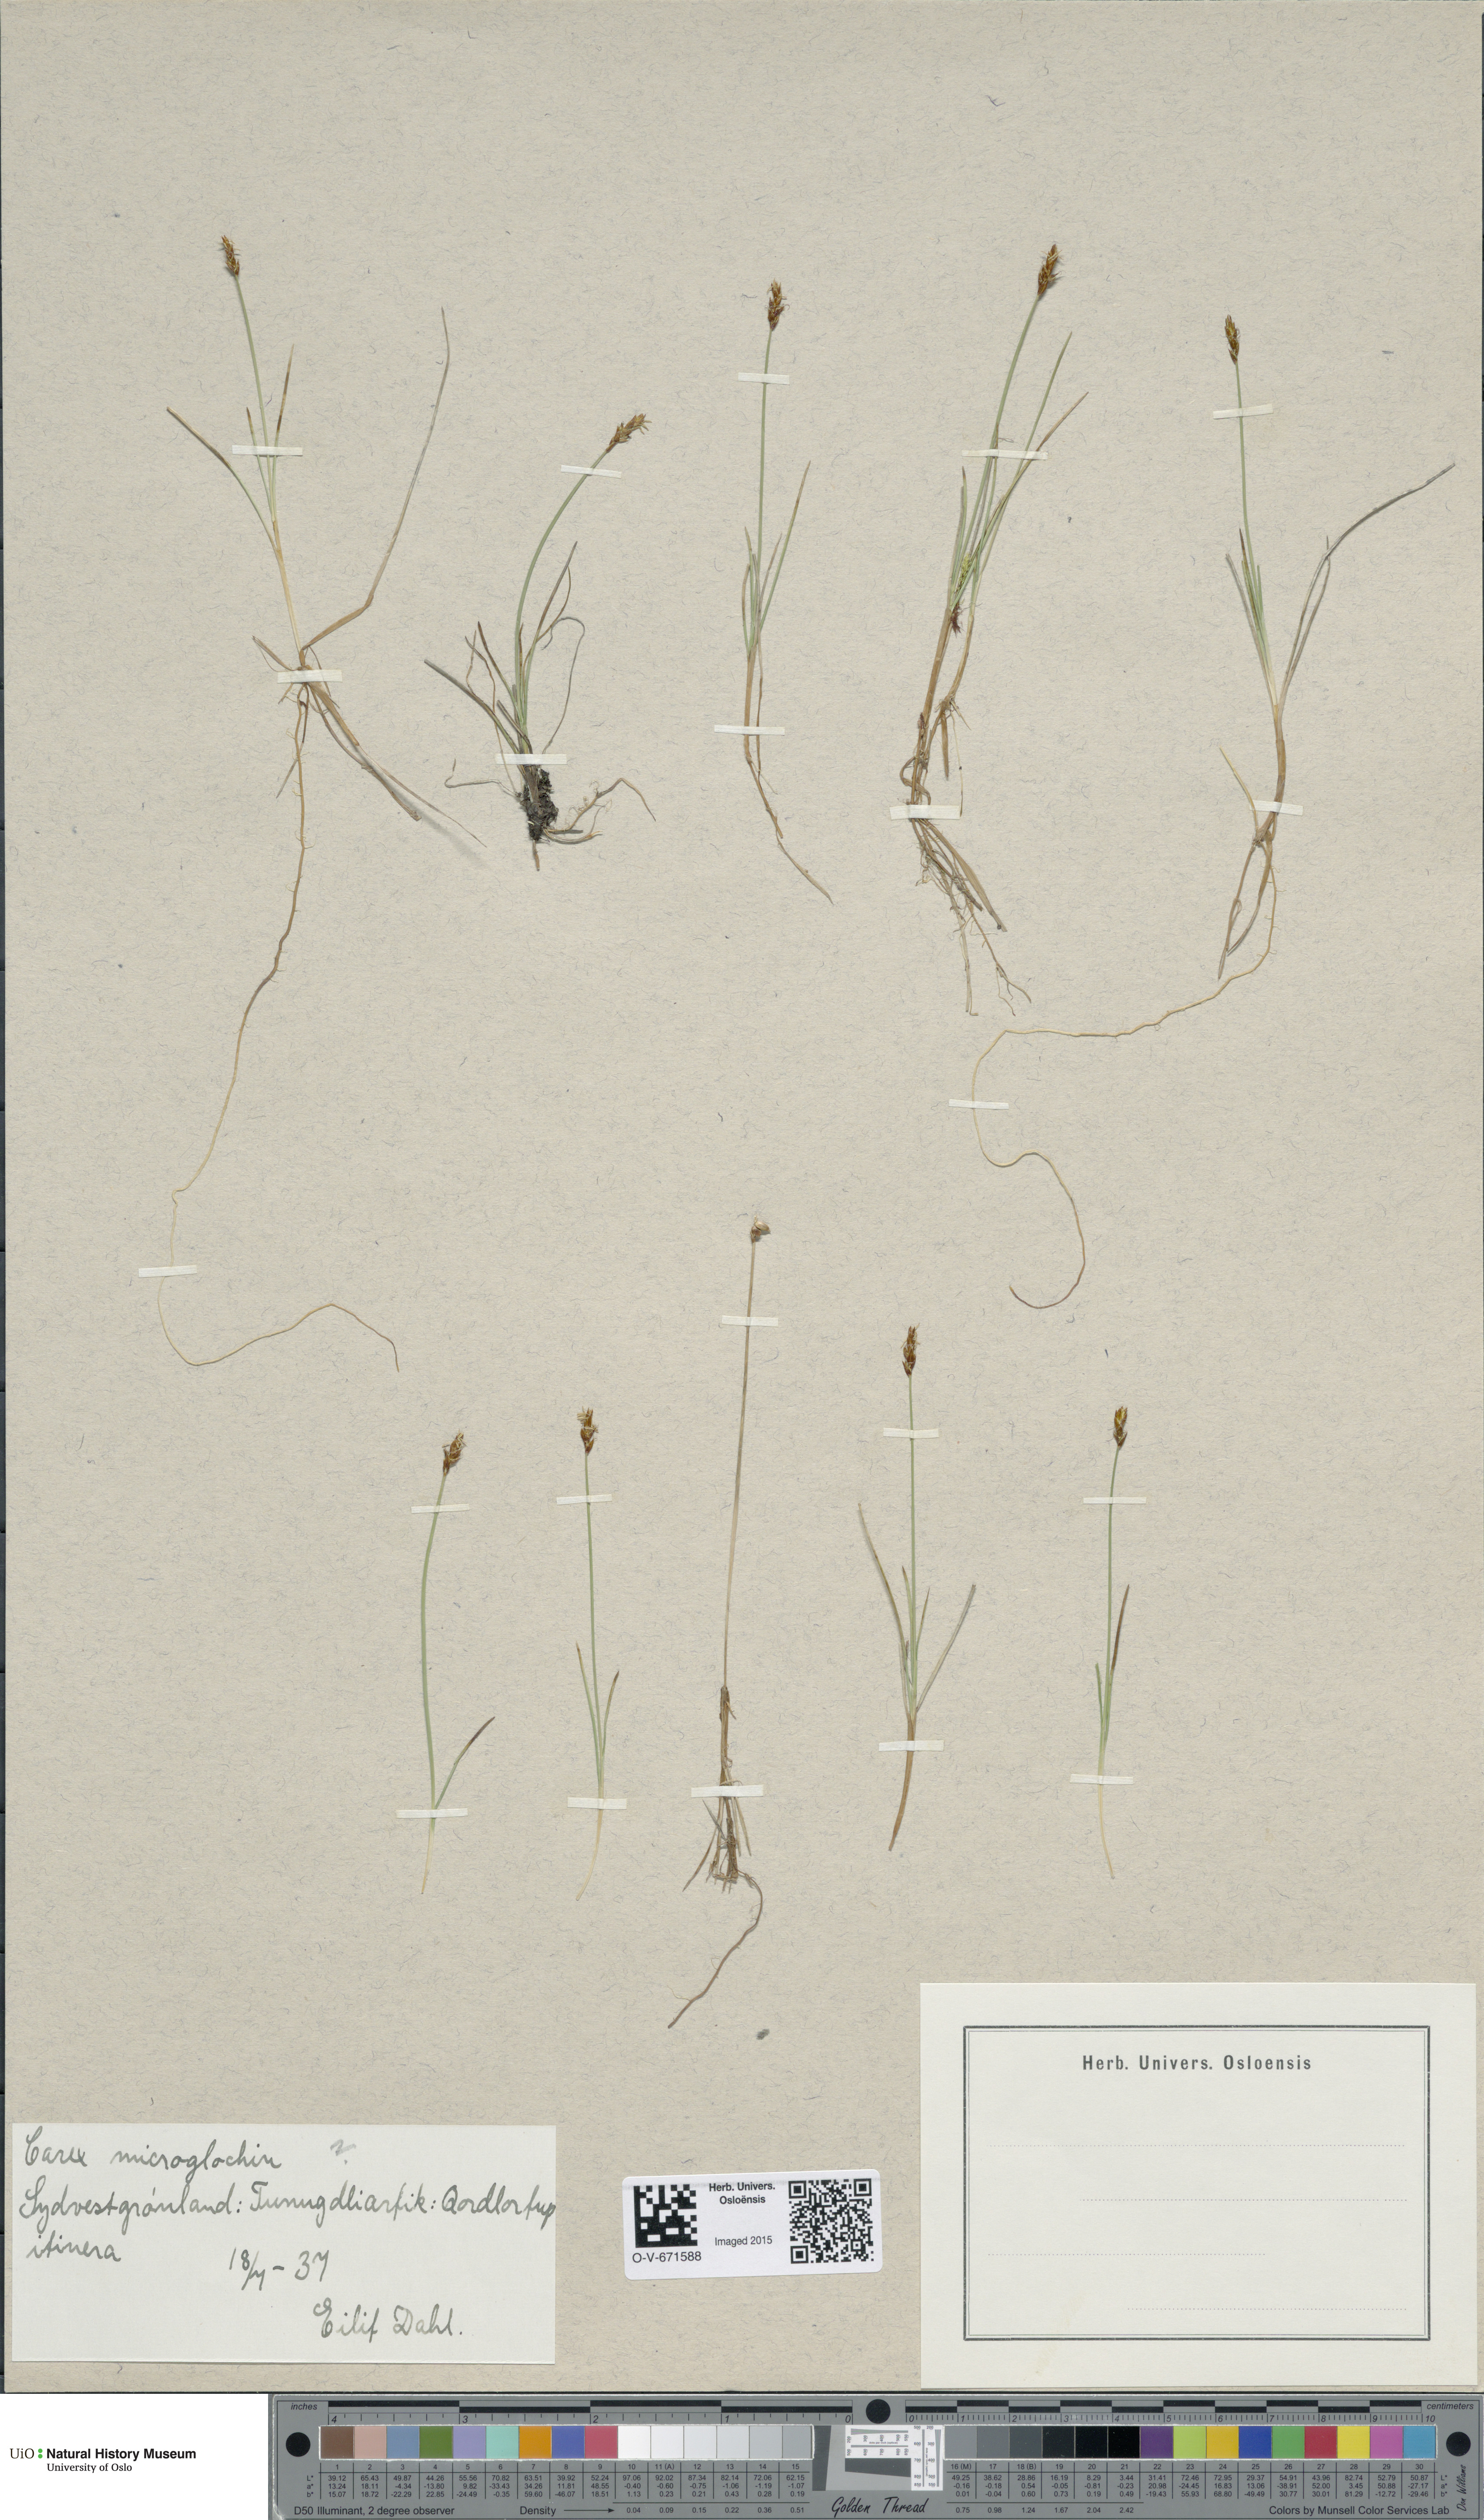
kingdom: Plantae
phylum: Tracheophyta
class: Liliopsida
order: Poales
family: Cyperaceae
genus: Carex
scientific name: Carex microglochin
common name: Bristle sedge
